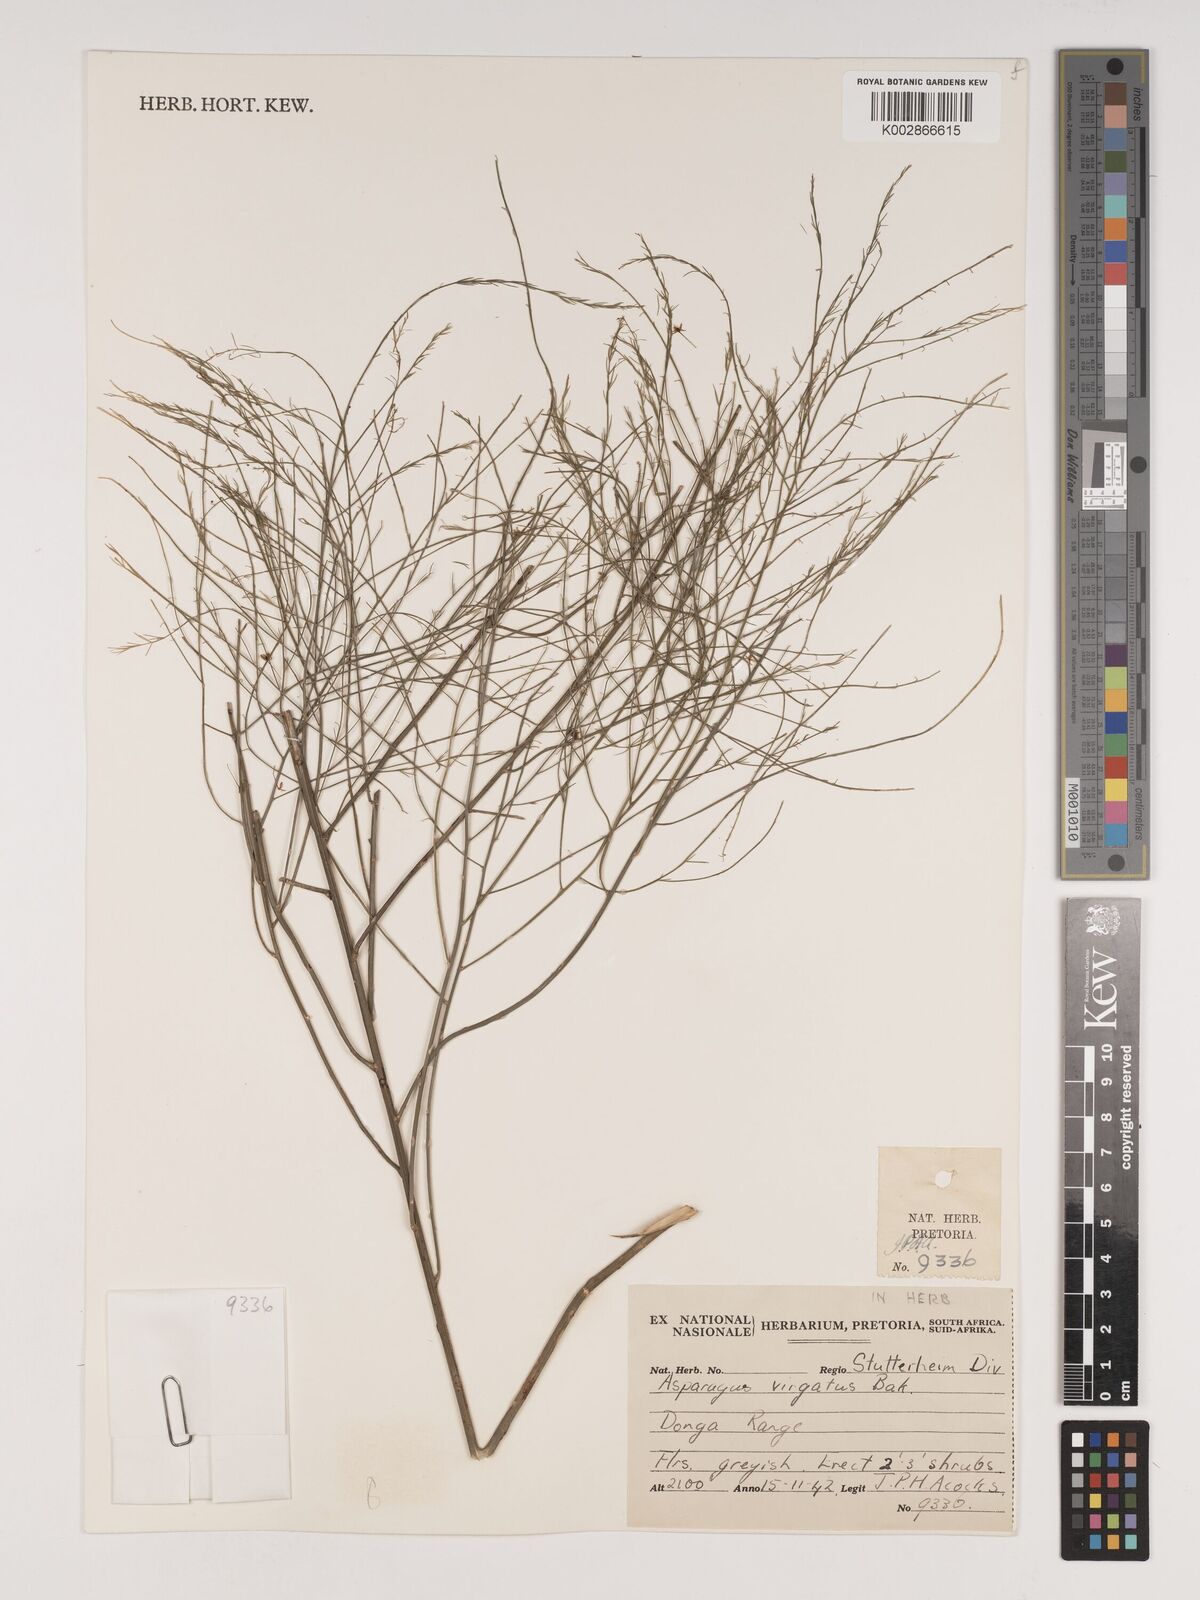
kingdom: Plantae
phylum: Tracheophyta
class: Liliopsida
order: Asparagales
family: Asparagaceae
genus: Asparagus
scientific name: Asparagus virgatus
